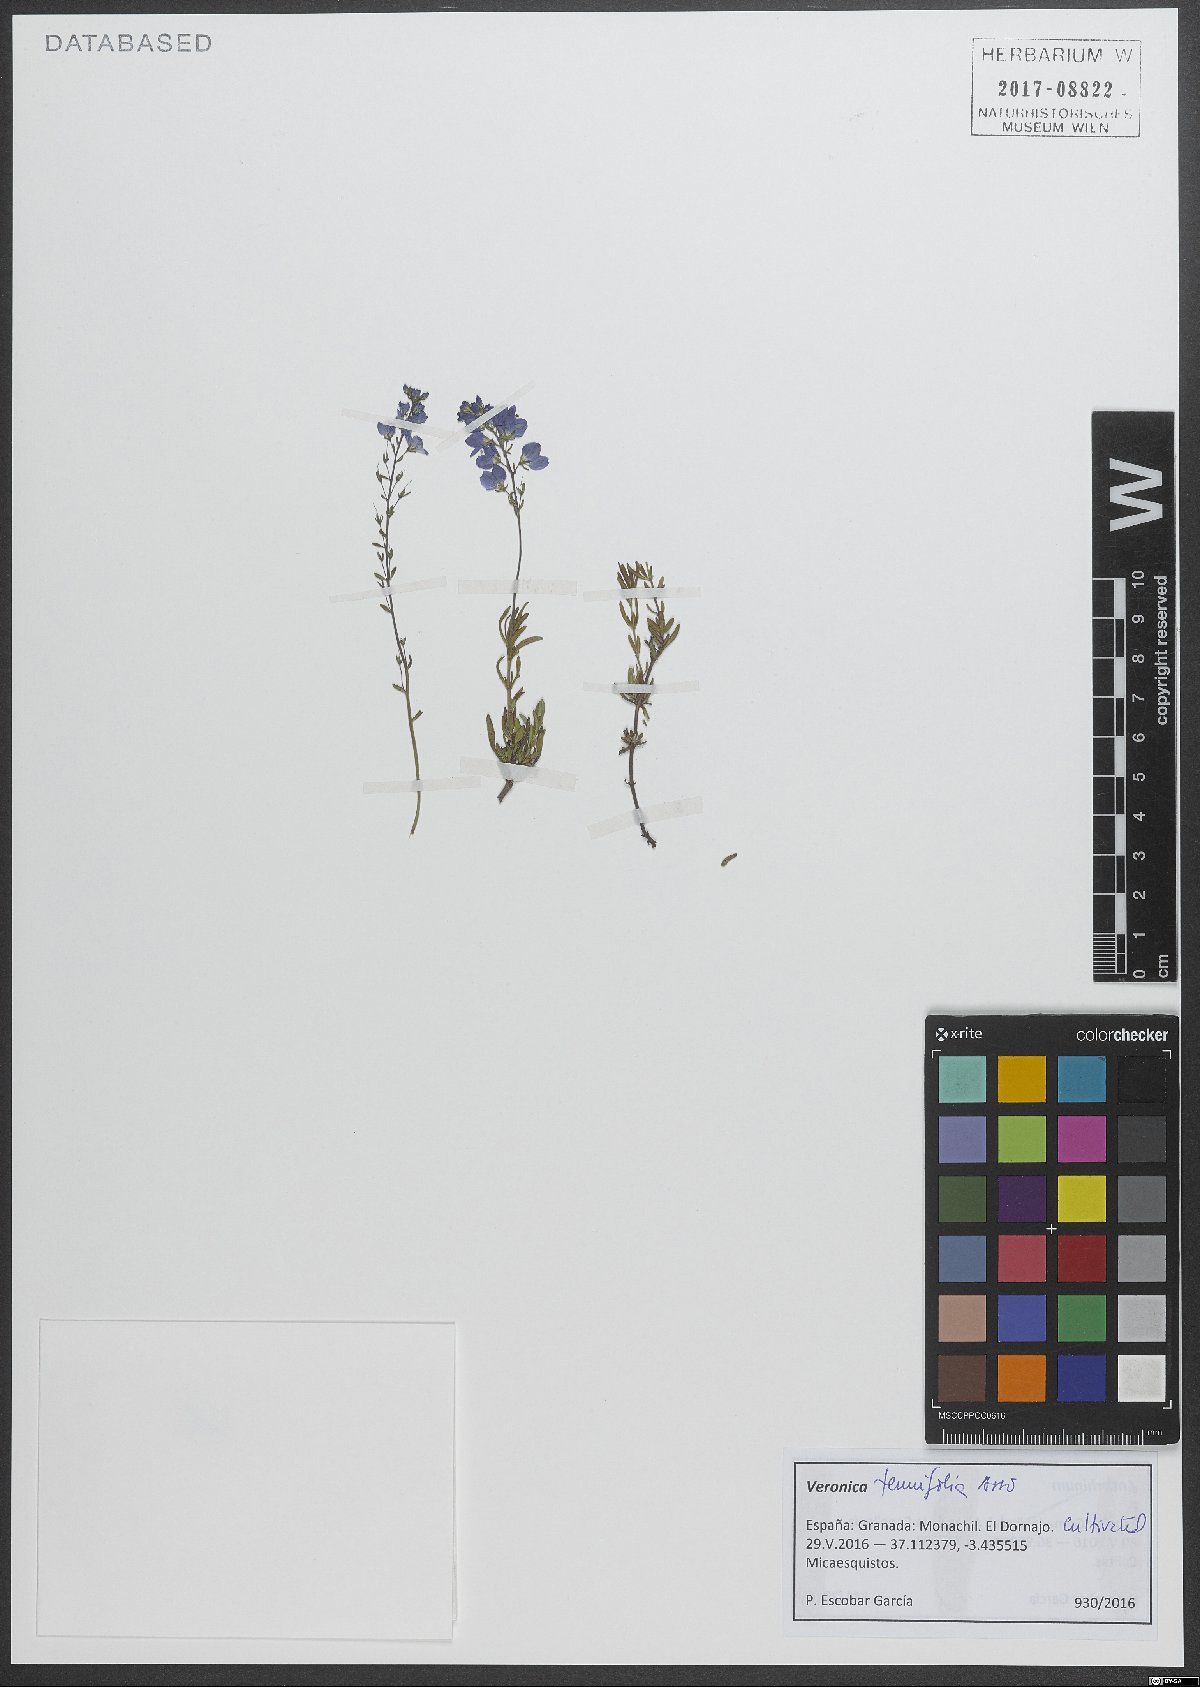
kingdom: Plantae
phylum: Tracheophyta
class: Magnoliopsida
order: Lamiales
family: Plantaginaceae
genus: Veronica
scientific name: Veronica tenuifolia
